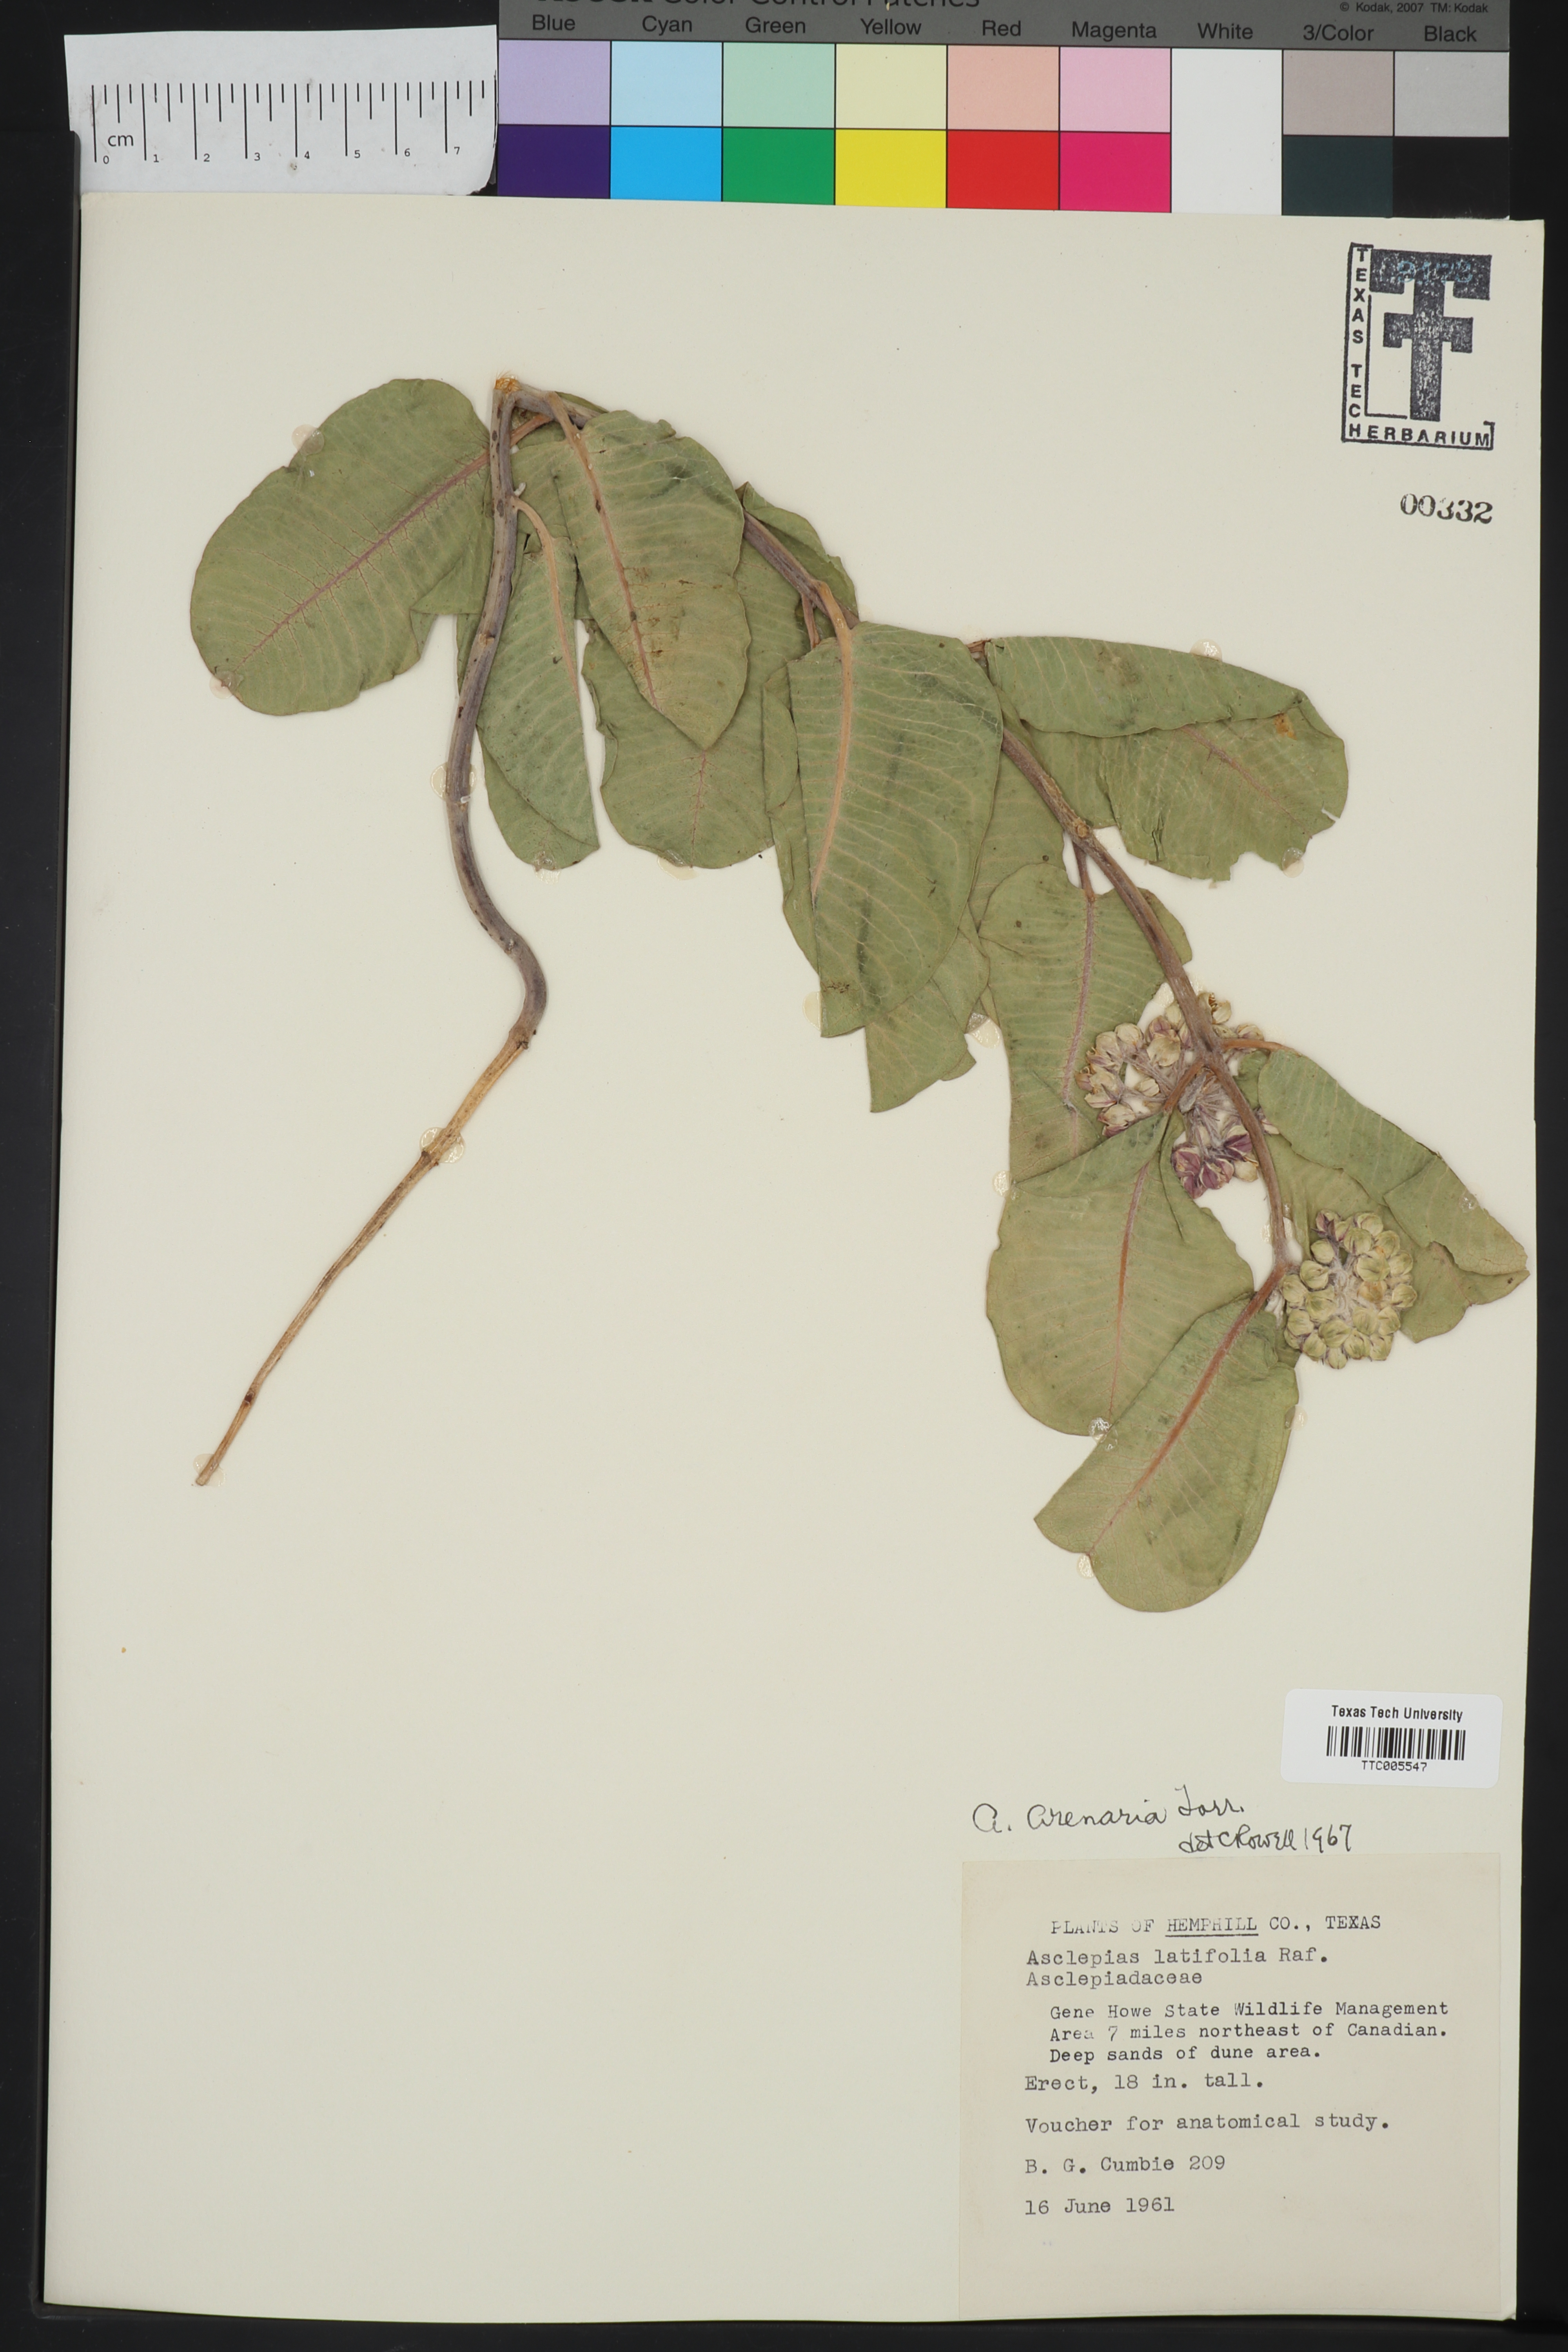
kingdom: Plantae
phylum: Tracheophyta
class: Magnoliopsida
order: Gentianales
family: Apocynaceae
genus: Asclepias
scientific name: Asclepias arenaria
